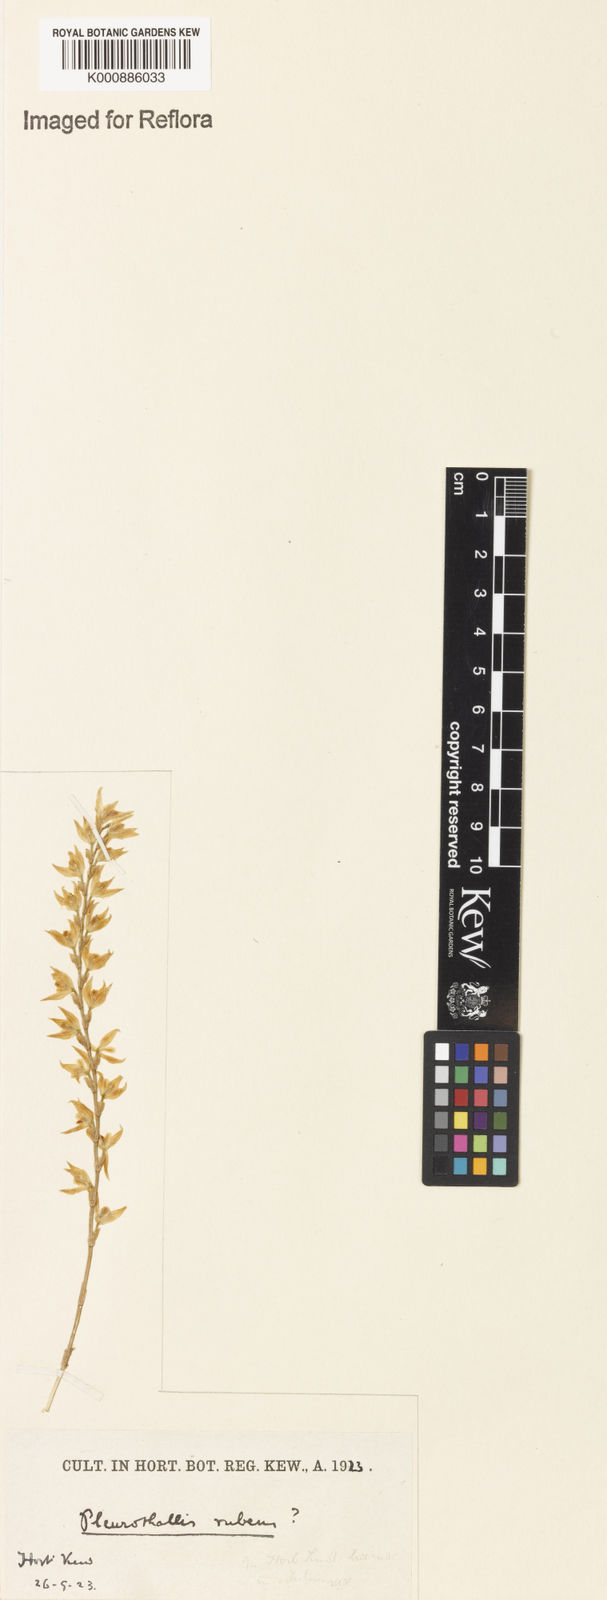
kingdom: Plantae
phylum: Tracheophyta
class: Liliopsida
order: Asparagales
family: Orchidaceae
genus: Stelis
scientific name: Stelis montserratii
